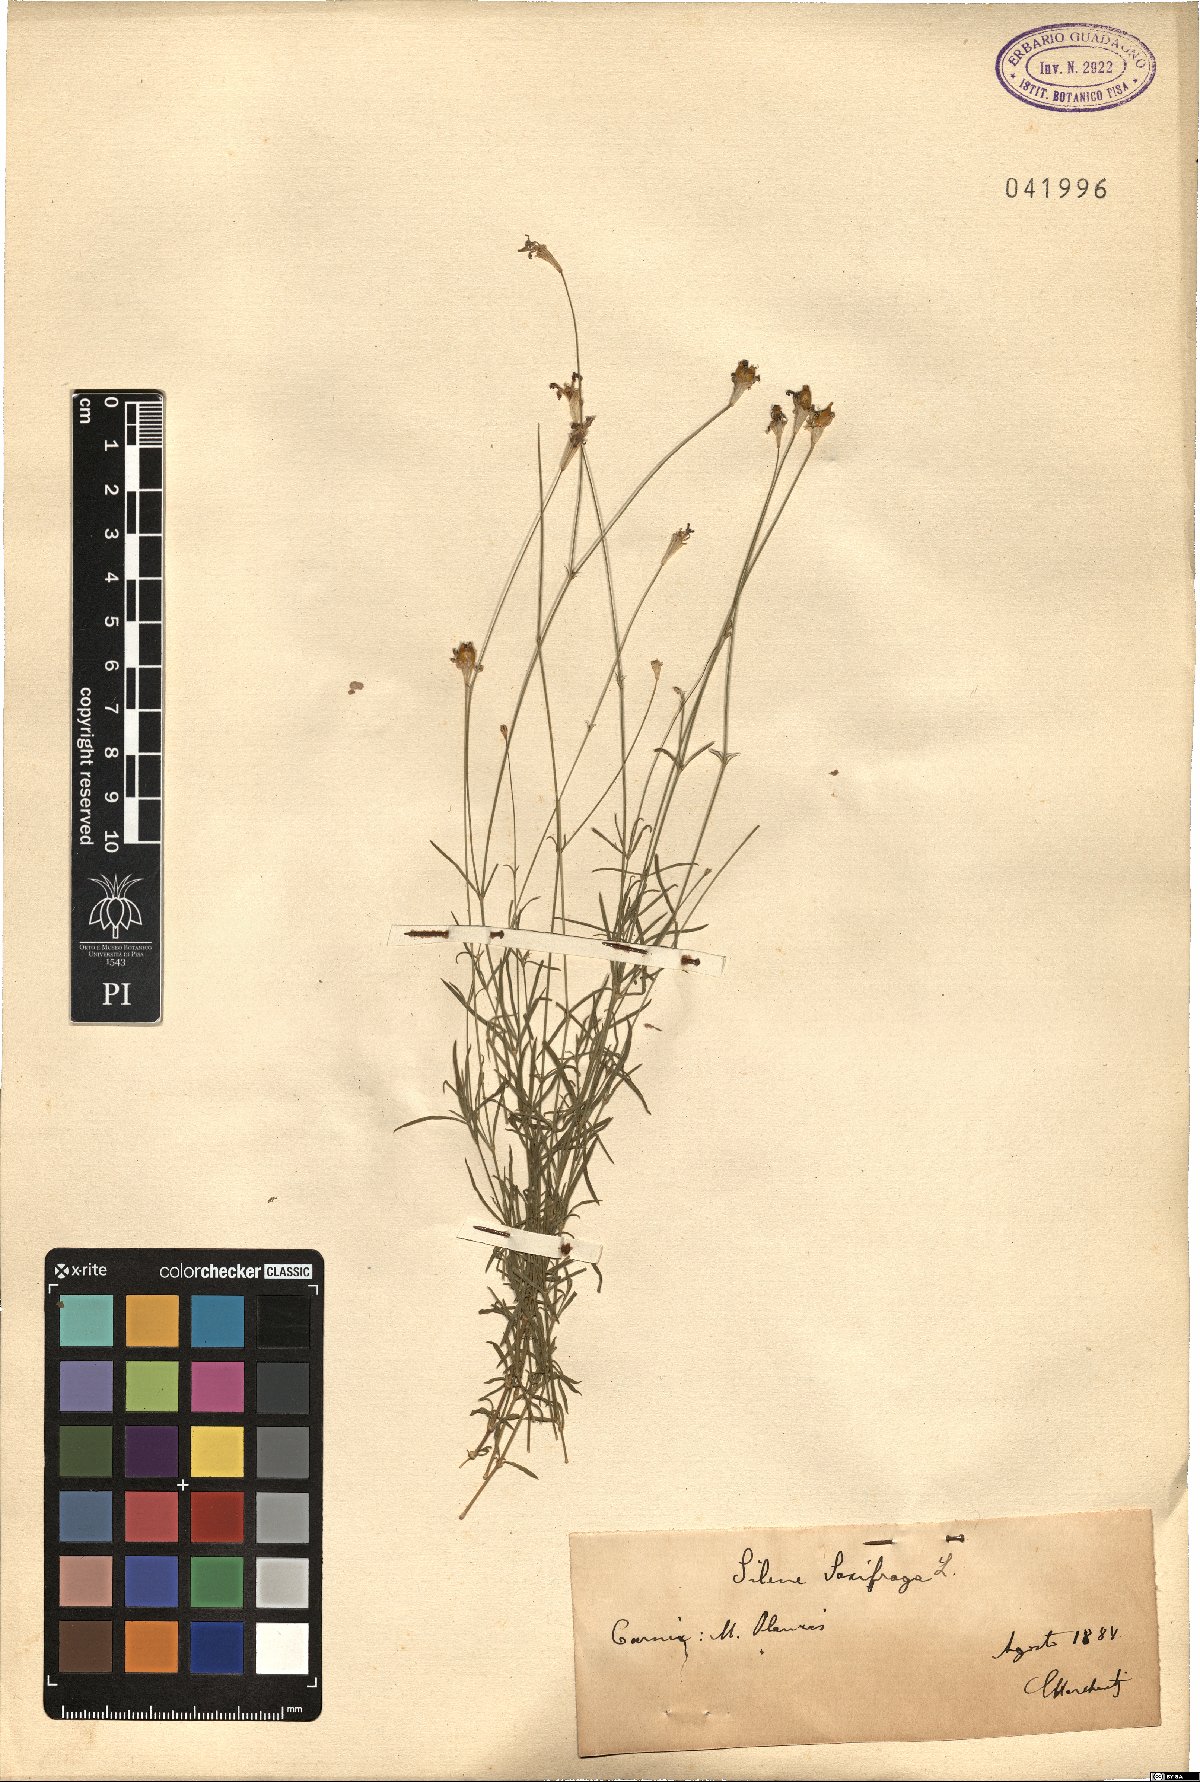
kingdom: Plantae
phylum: Tracheophyta
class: Magnoliopsida
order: Caryophyllales
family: Caryophyllaceae
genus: Silene
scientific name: Silene saxifraga
